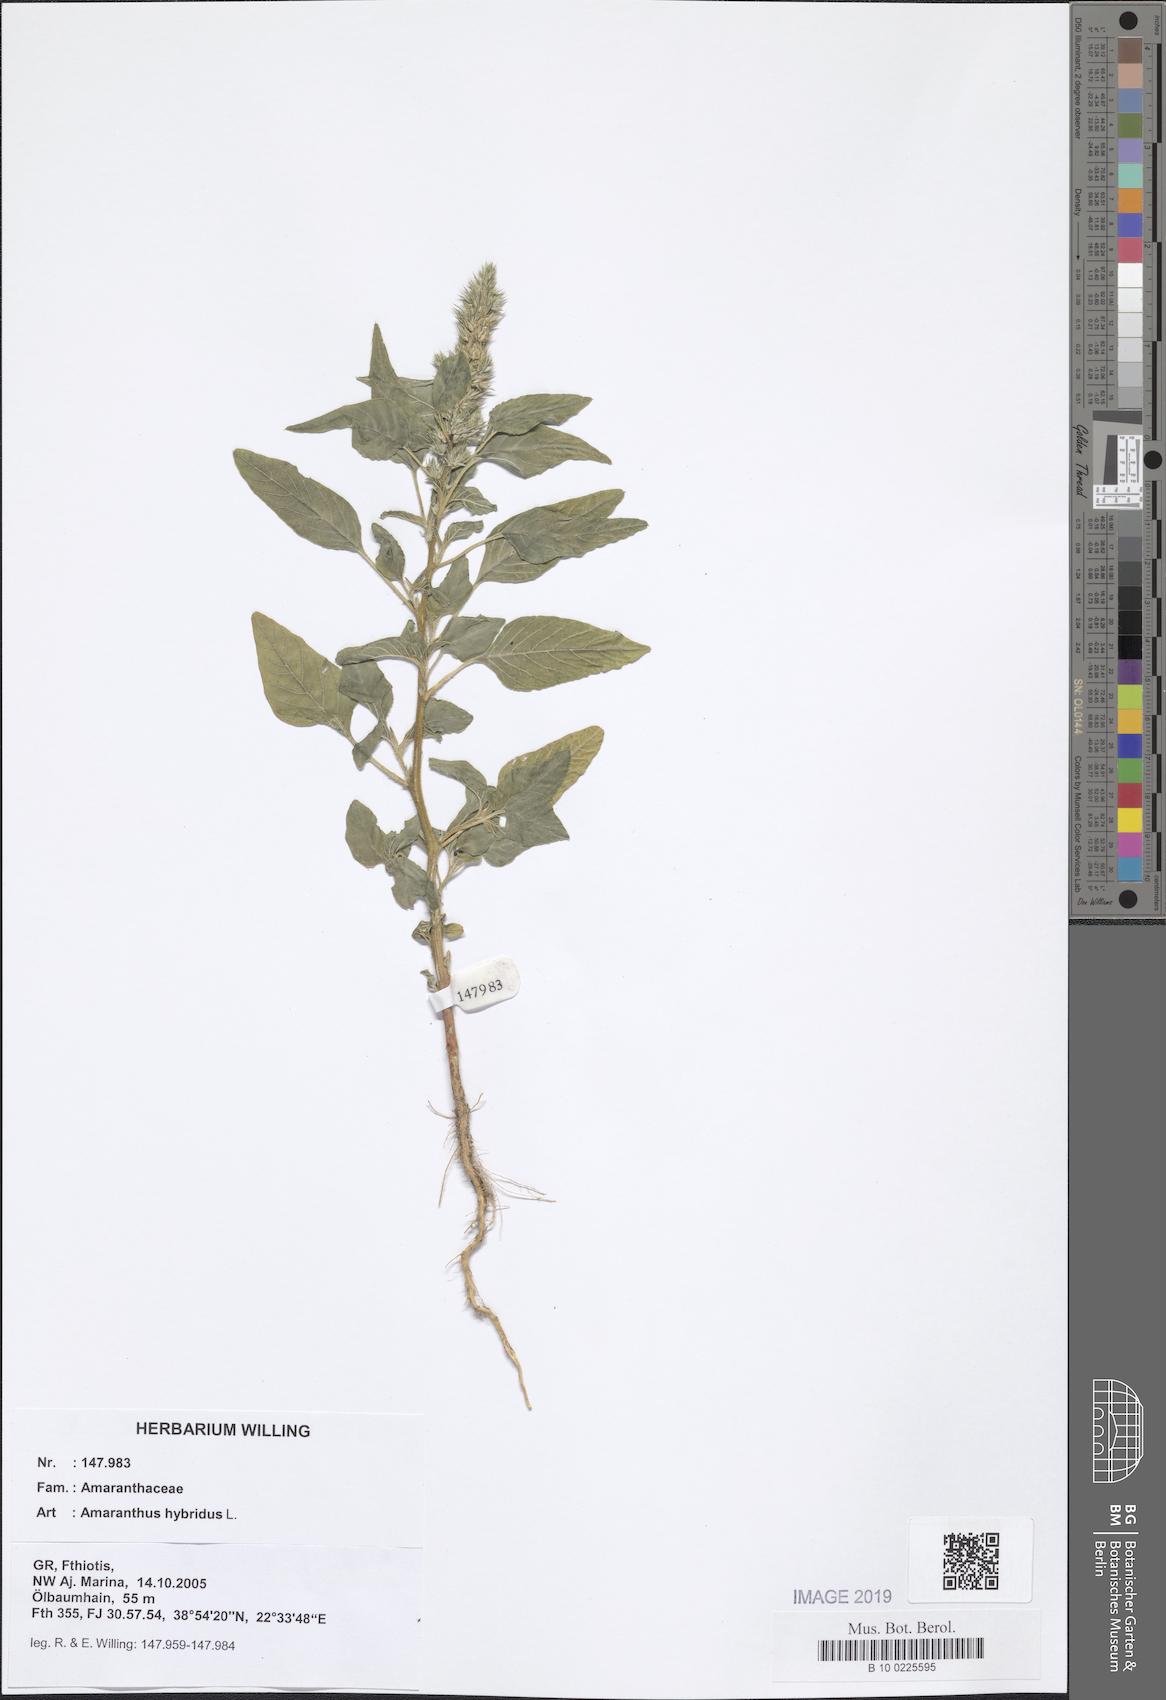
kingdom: Plantae
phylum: Tracheophyta
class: Magnoliopsida
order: Caryophyllales
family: Amaranthaceae
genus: Amaranthus
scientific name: Amaranthus hybridus
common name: Green amaranth
